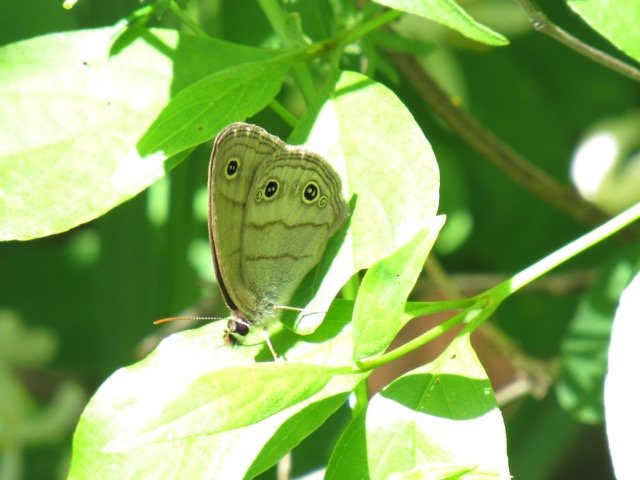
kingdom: Animalia
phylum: Arthropoda
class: Insecta
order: Lepidoptera
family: Nymphalidae
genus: Euptychia
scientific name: Euptychia cymela
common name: Little Wood Satyr
